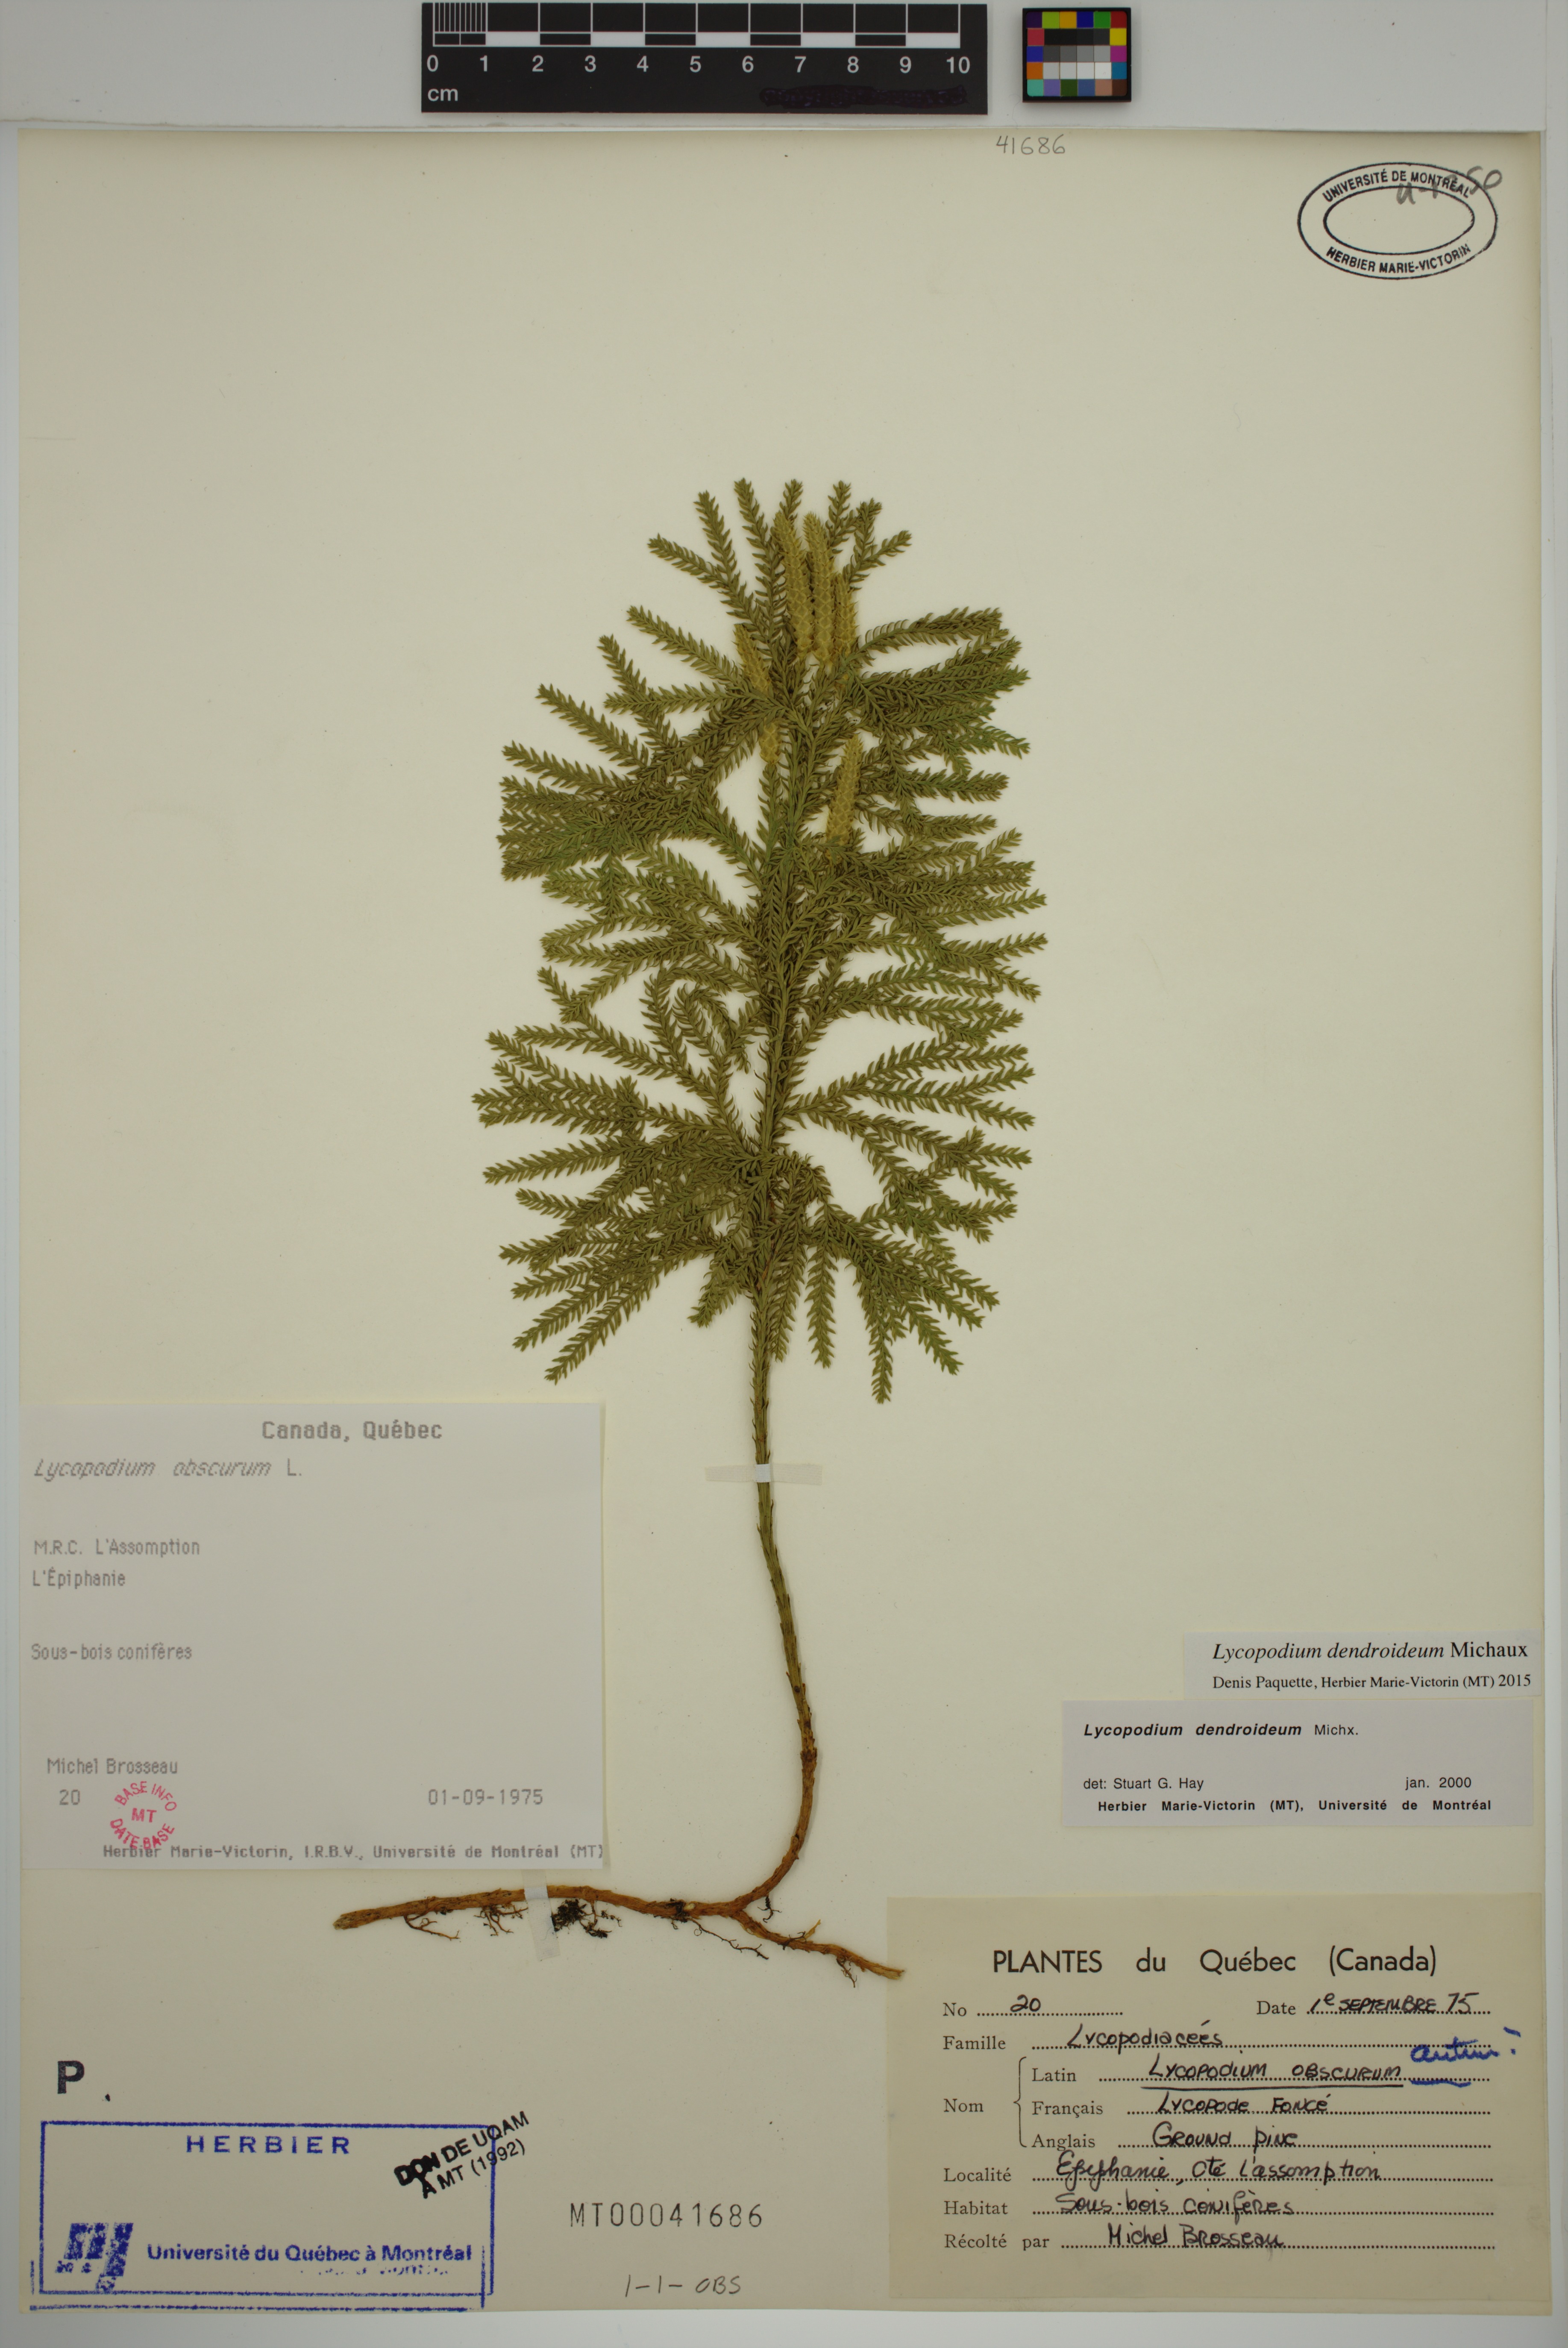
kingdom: Plantae
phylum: Tracheophyta
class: Lycopodiopsida
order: Lycopodiales
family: Lycopodiaceae
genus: Dendrolycopodium
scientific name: Dendrolycopodium dendroideum
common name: Northern tree-clubmoss
